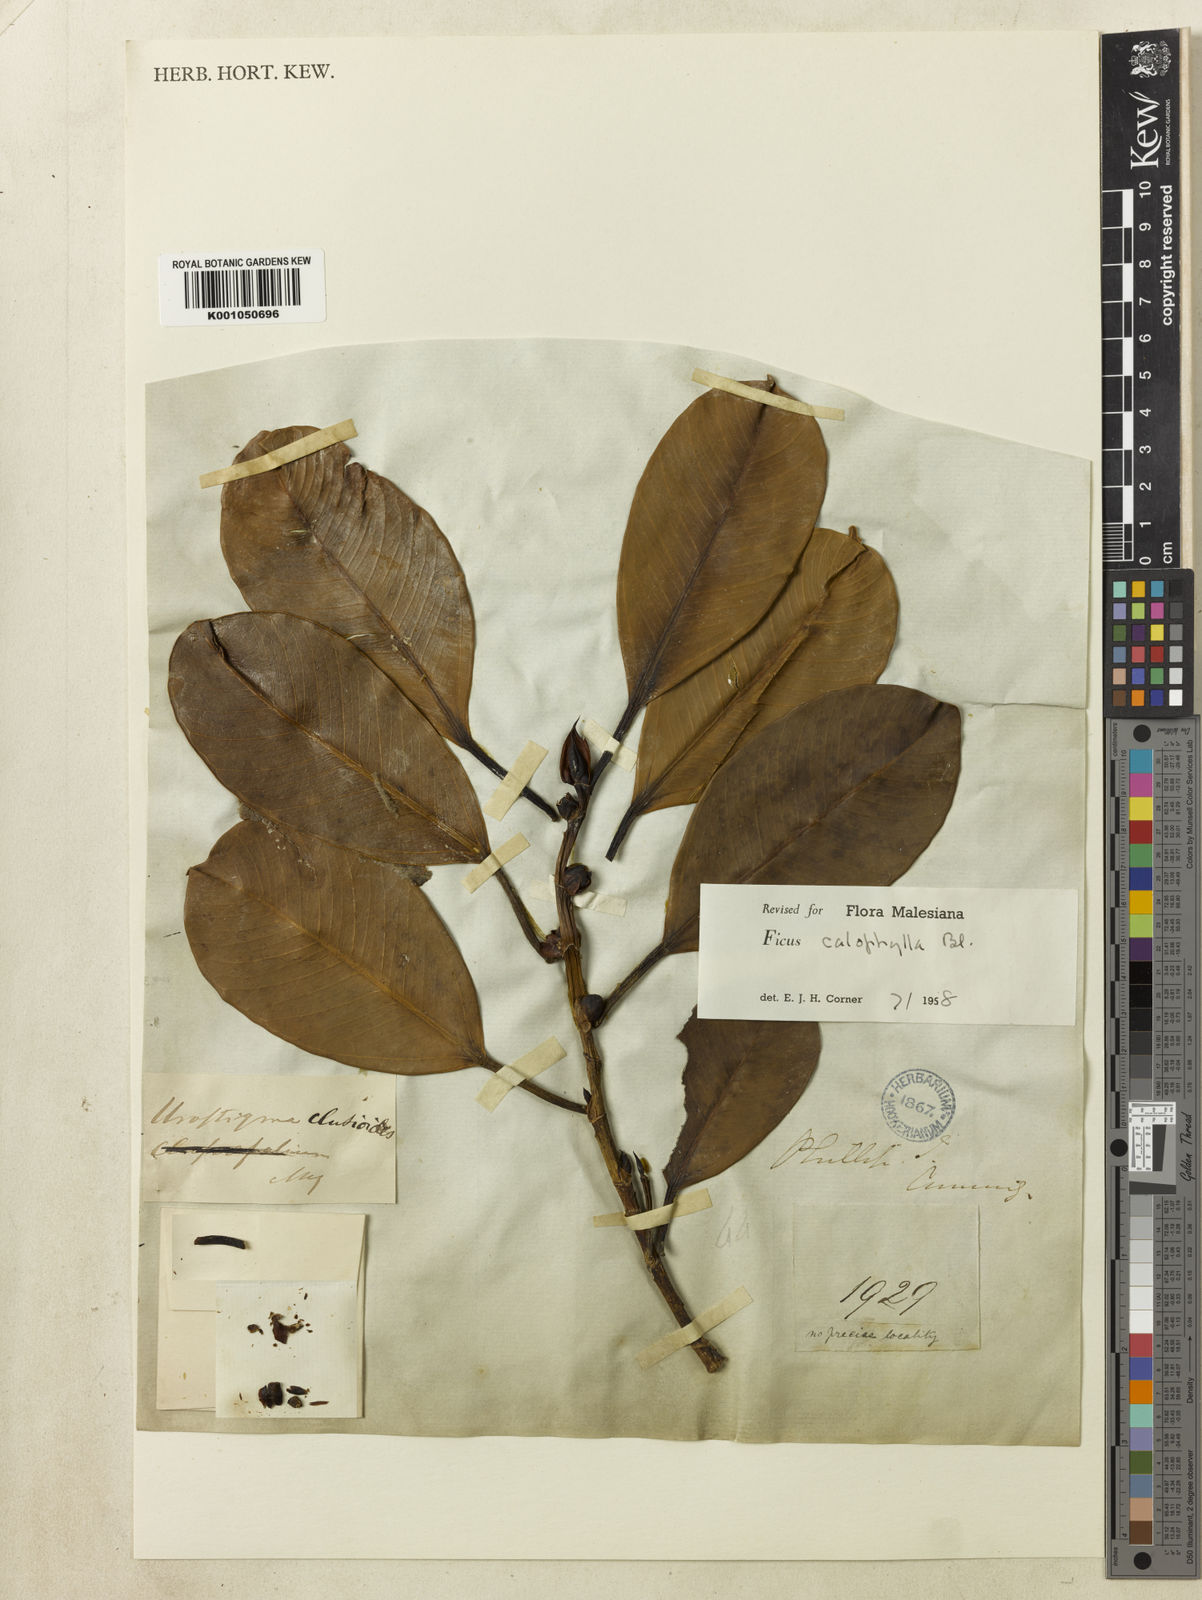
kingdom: Plantae
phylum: Tracheophyta
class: Magnoliopsida
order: Rosales
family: Moraceae
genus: Ficus
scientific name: Ficus callophylla
